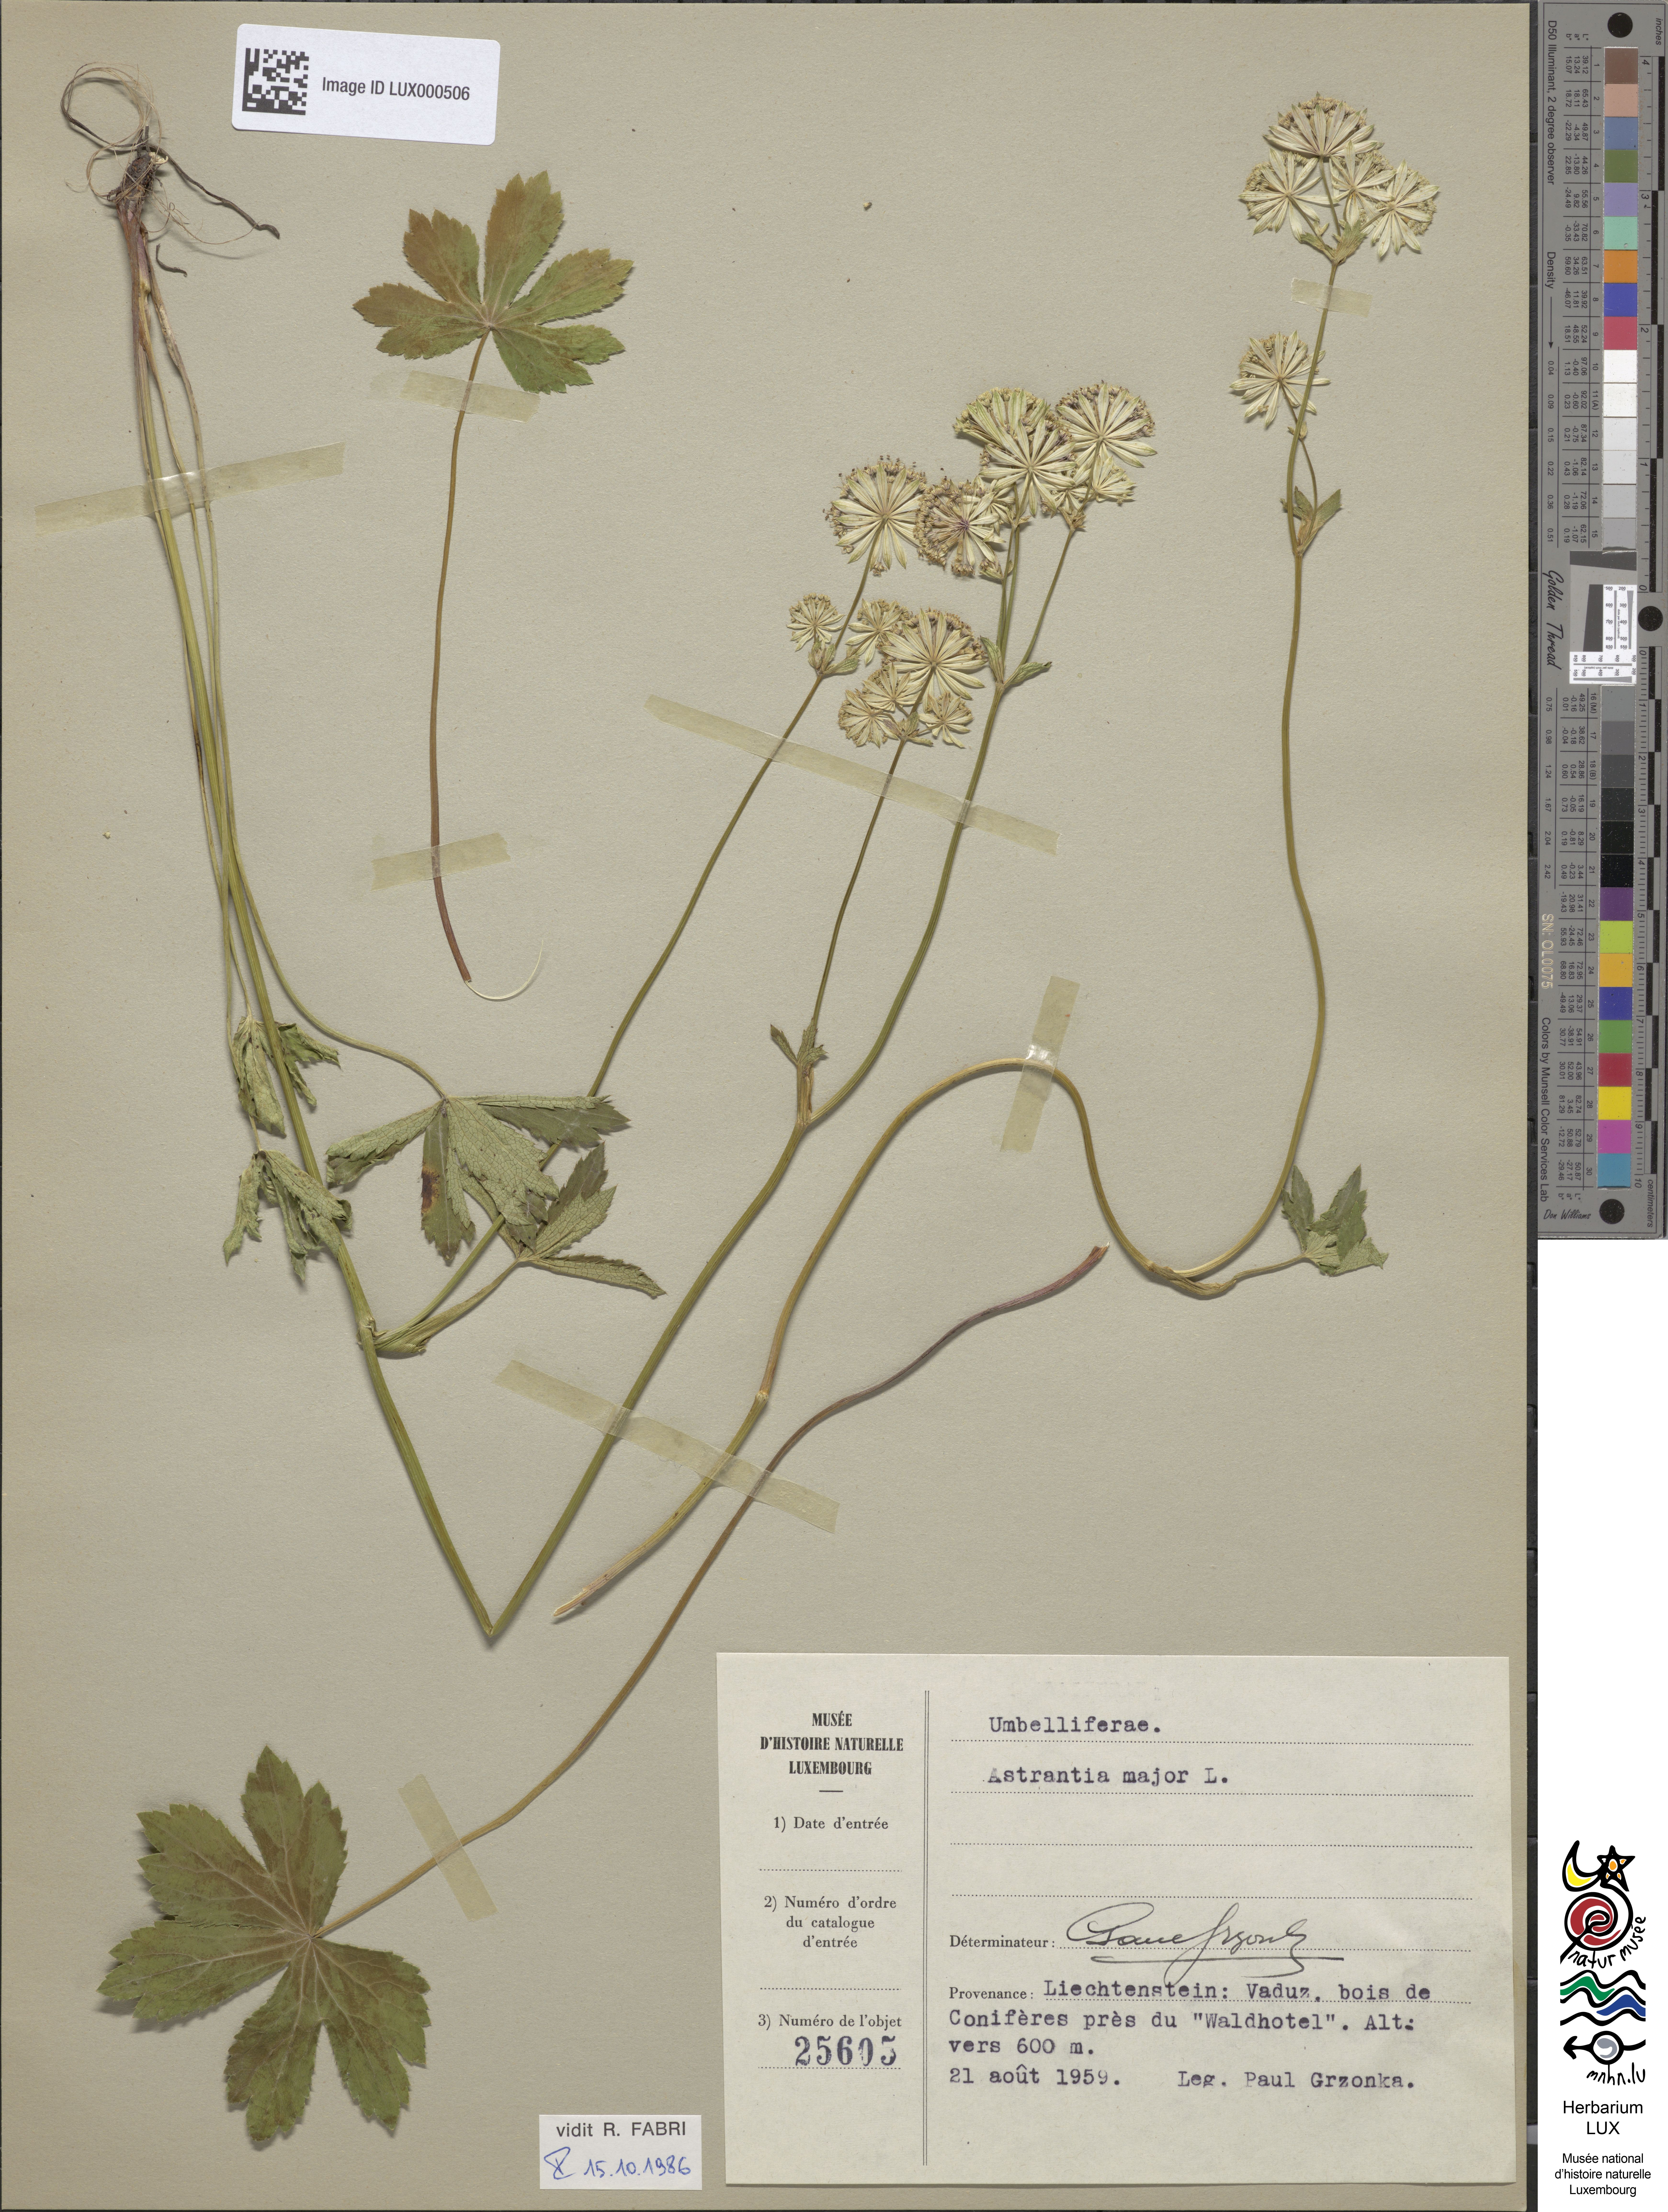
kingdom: Plantae
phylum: Tracheophyta
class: Magnoliopsida
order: Apiales
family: Apiaceae
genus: Astrantia
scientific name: Astrantia major
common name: Greater masterwort
